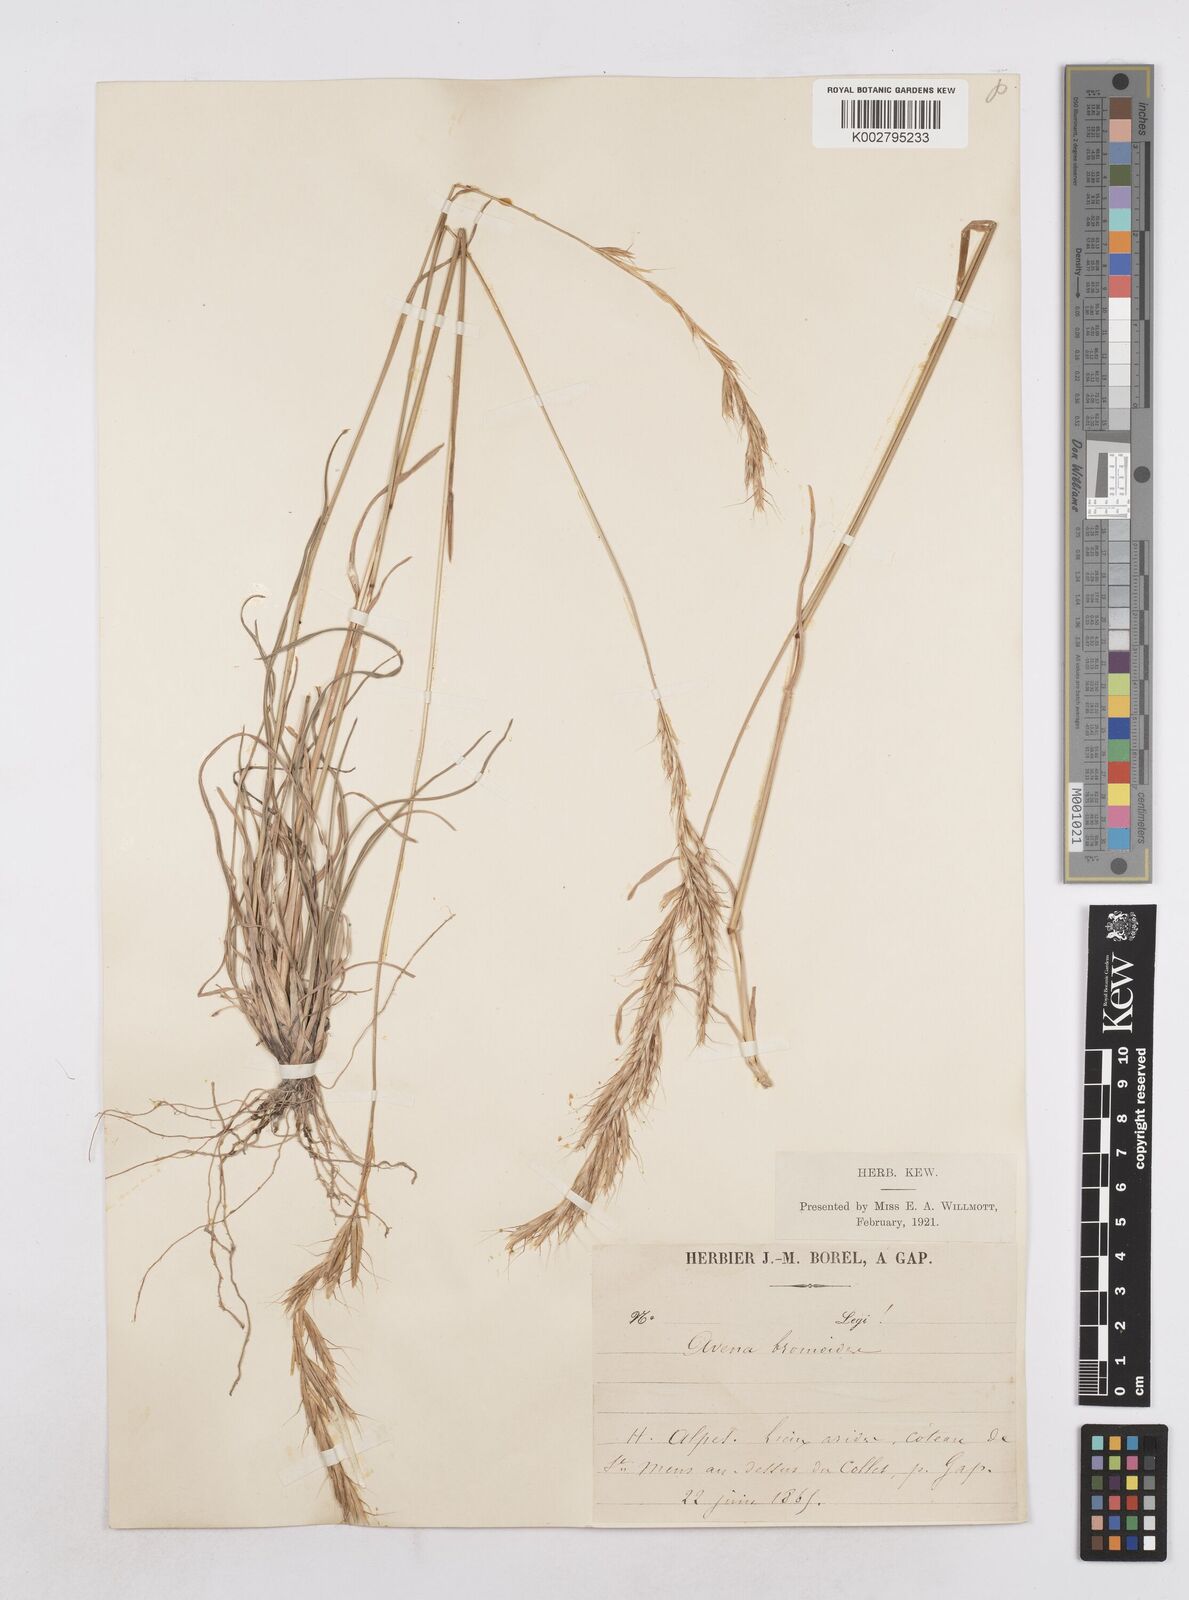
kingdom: Plantae
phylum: Tracheophyta
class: Liliopsida
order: Poales
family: Poaceae
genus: Helictochloa
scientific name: Helictochloa bromoides
